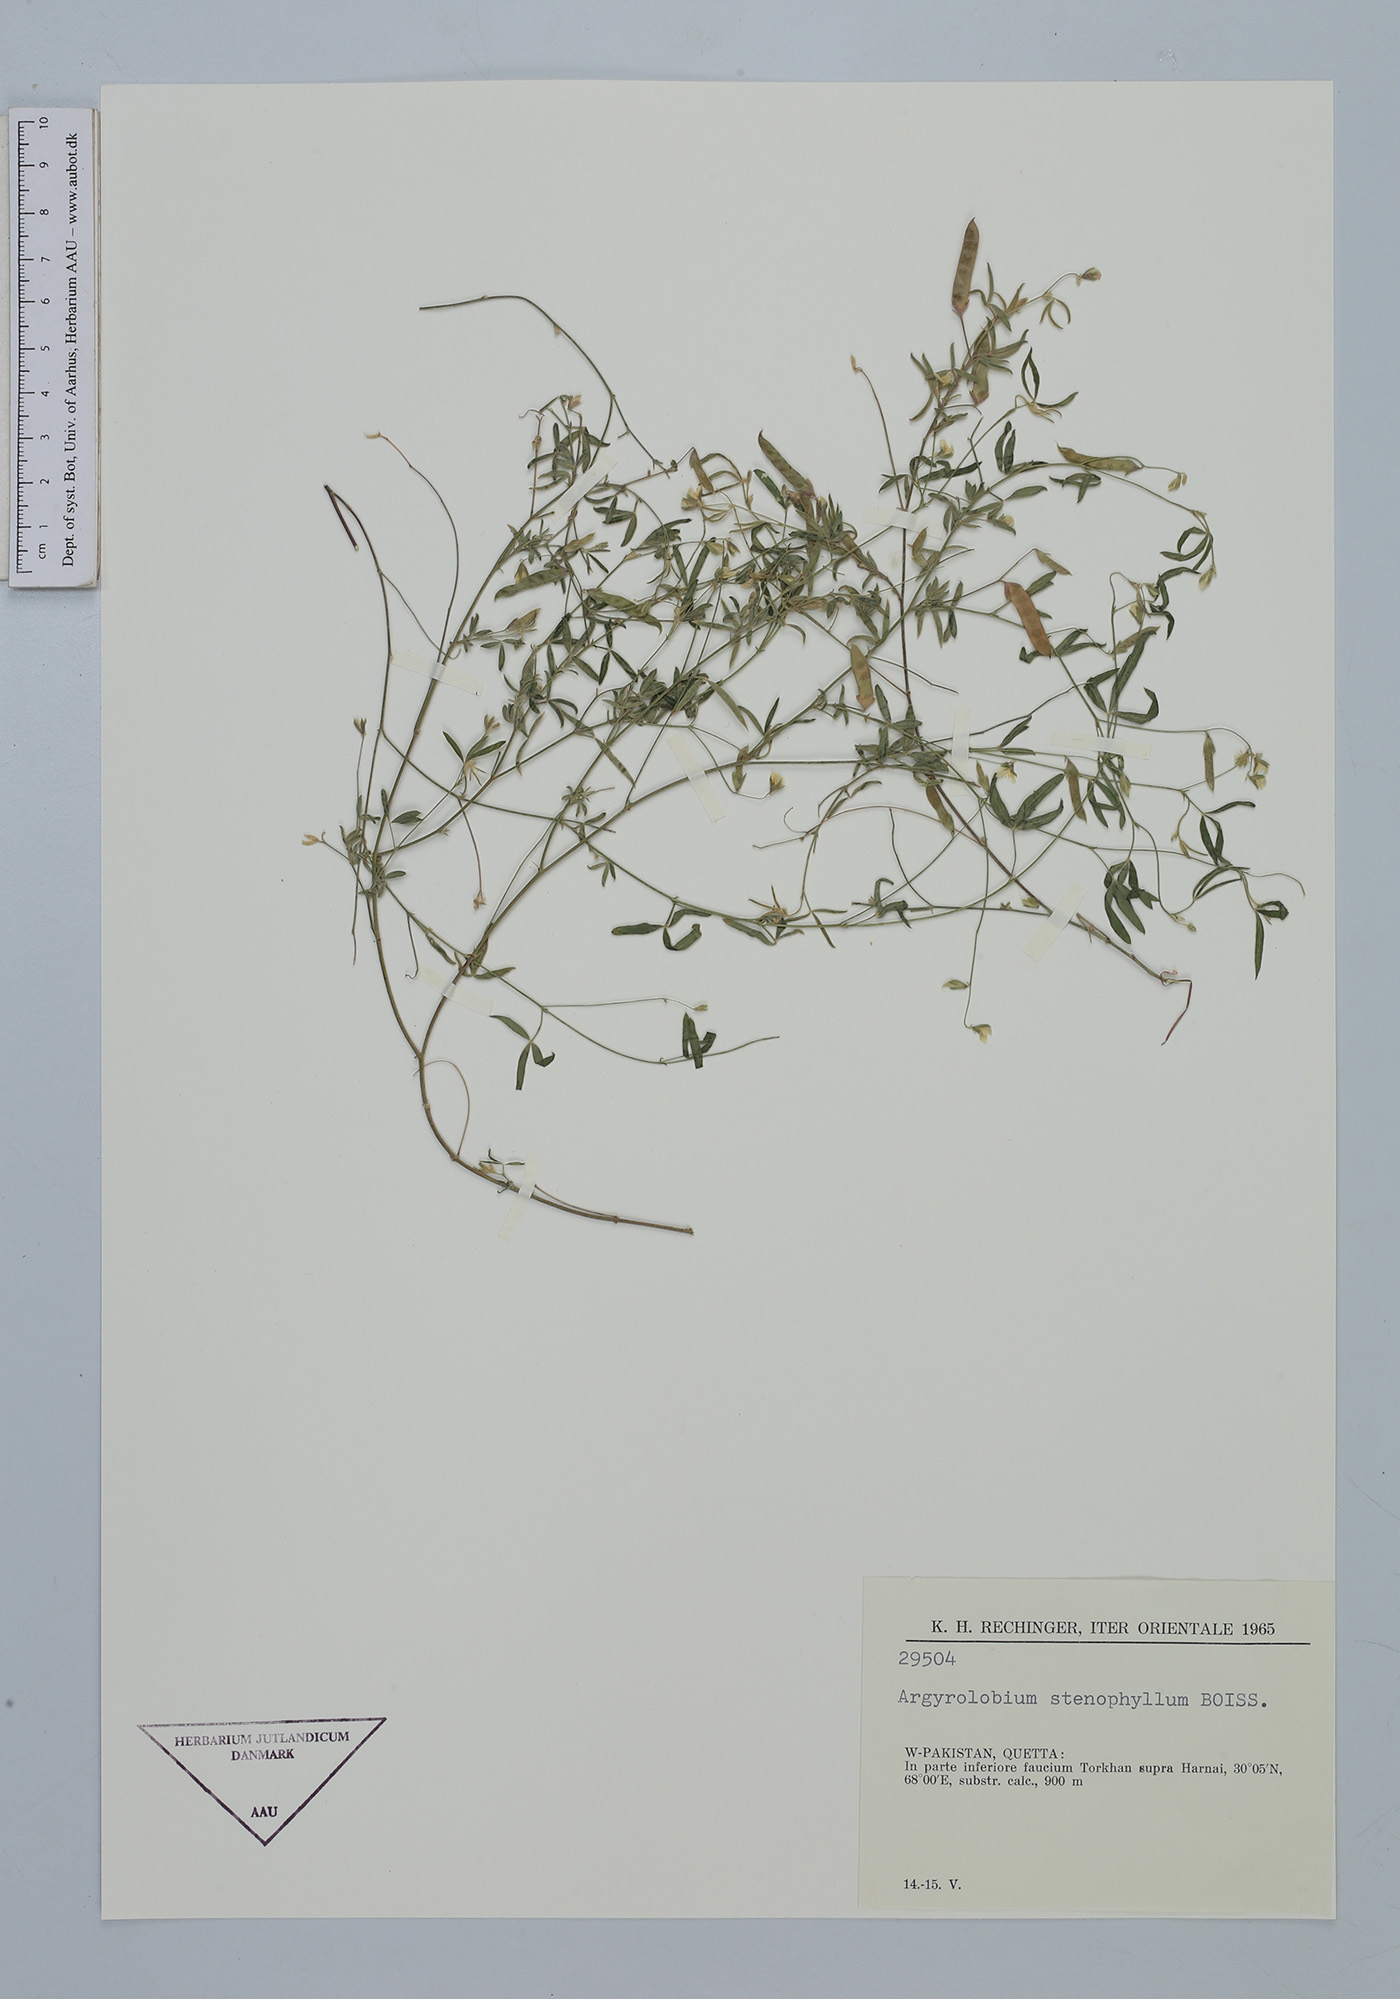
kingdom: Plantae
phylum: Tracheophyta
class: Magnoliopsida
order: Fabales
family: Fabaceae
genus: Argyrolobium
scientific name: Argyrolobium stenophyllum
